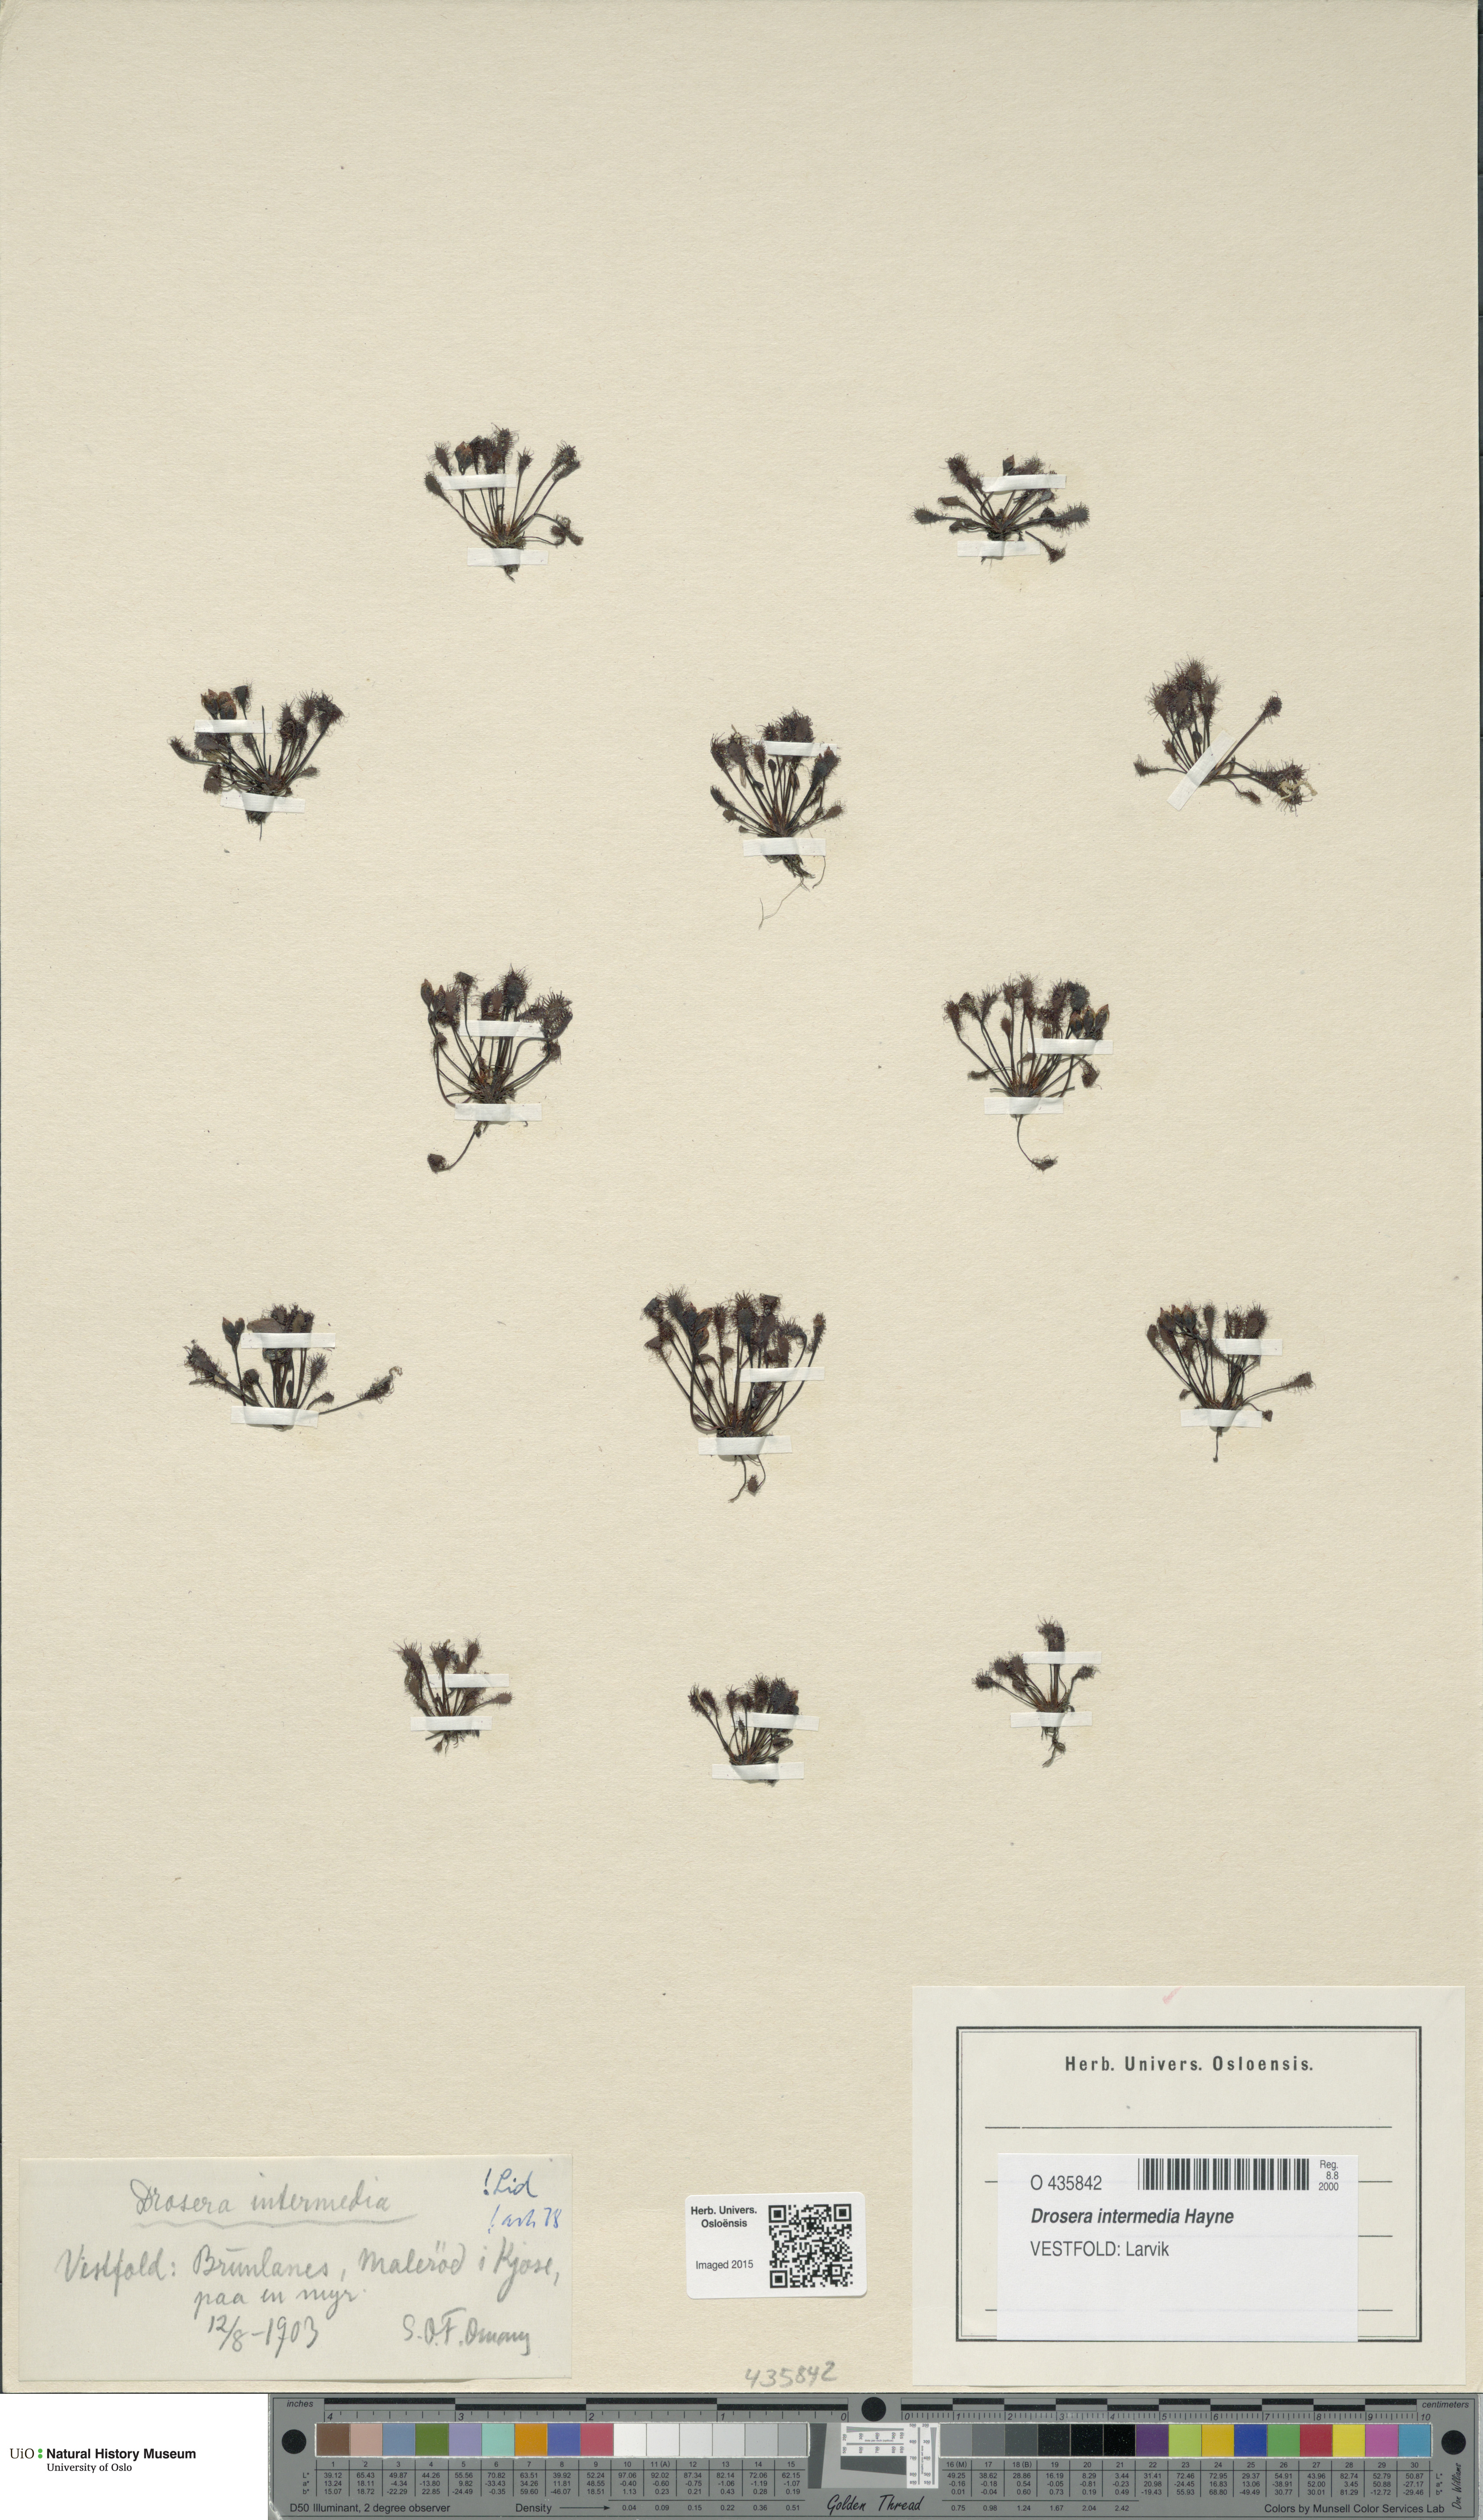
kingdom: Plantae
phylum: Tracheophyta
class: Magnoliopsida
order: Caryophyllales
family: Droseraceae
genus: Drosera
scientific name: Drosera intermedia
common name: Oblong-leaved sundew
